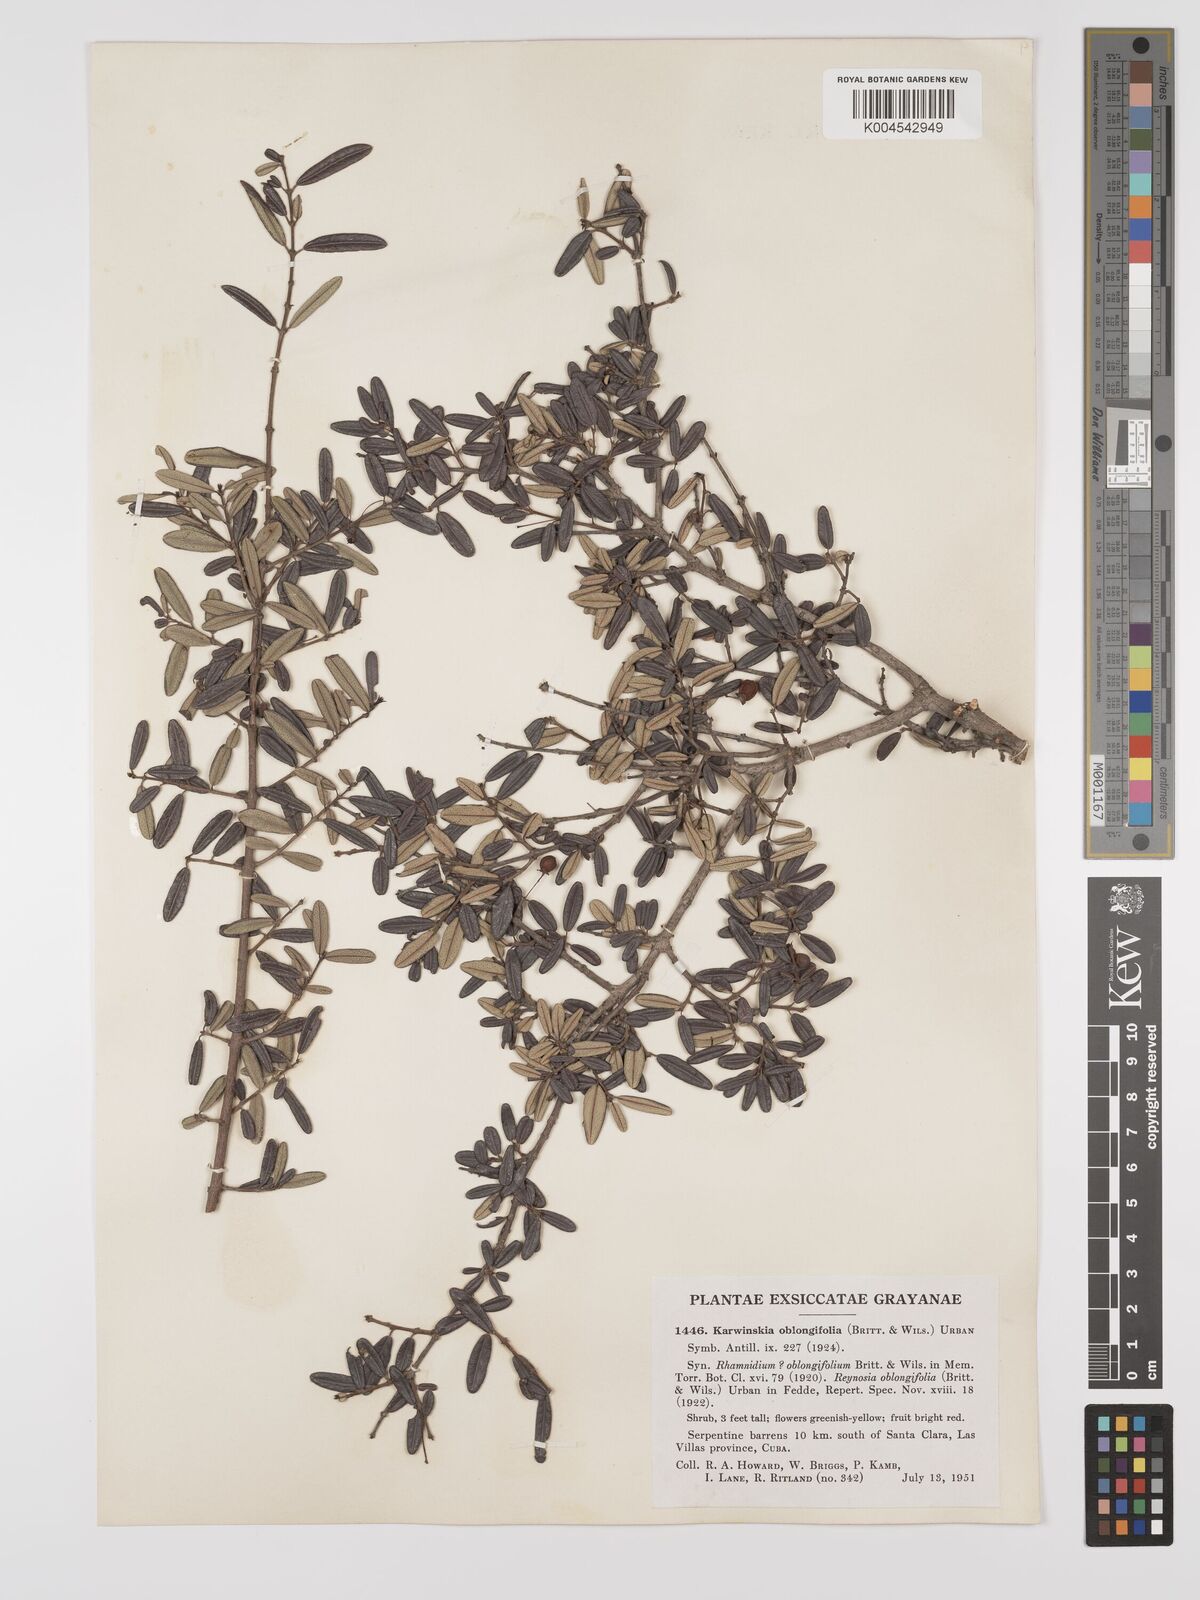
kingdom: Plantae
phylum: Tracheophyta
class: Magnoliopsida
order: Rosales
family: Rhamnaceae
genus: Karwinskia
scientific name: Karwinskia
